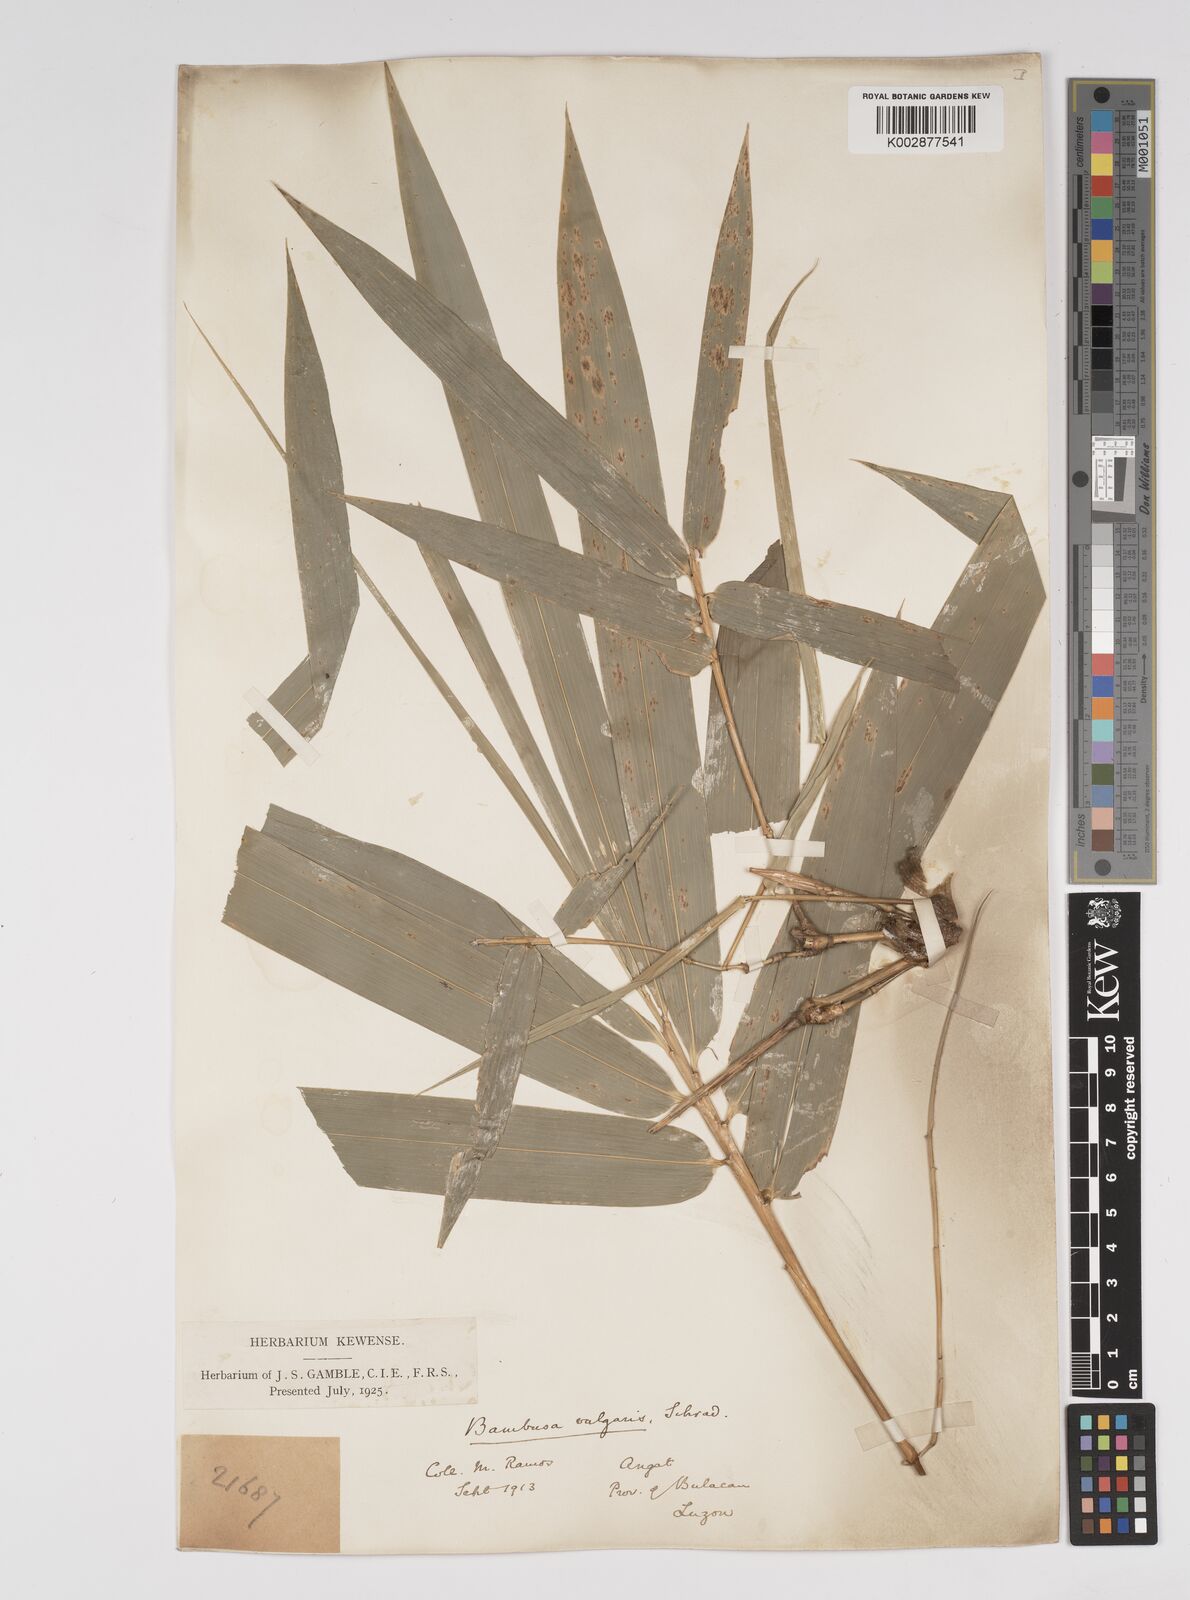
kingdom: Plantae
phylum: Tracheophyta
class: Liliopsida
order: Poales
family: Poaceae
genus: Bambusa
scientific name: Bambusa vulgaris
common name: Common bamboo
